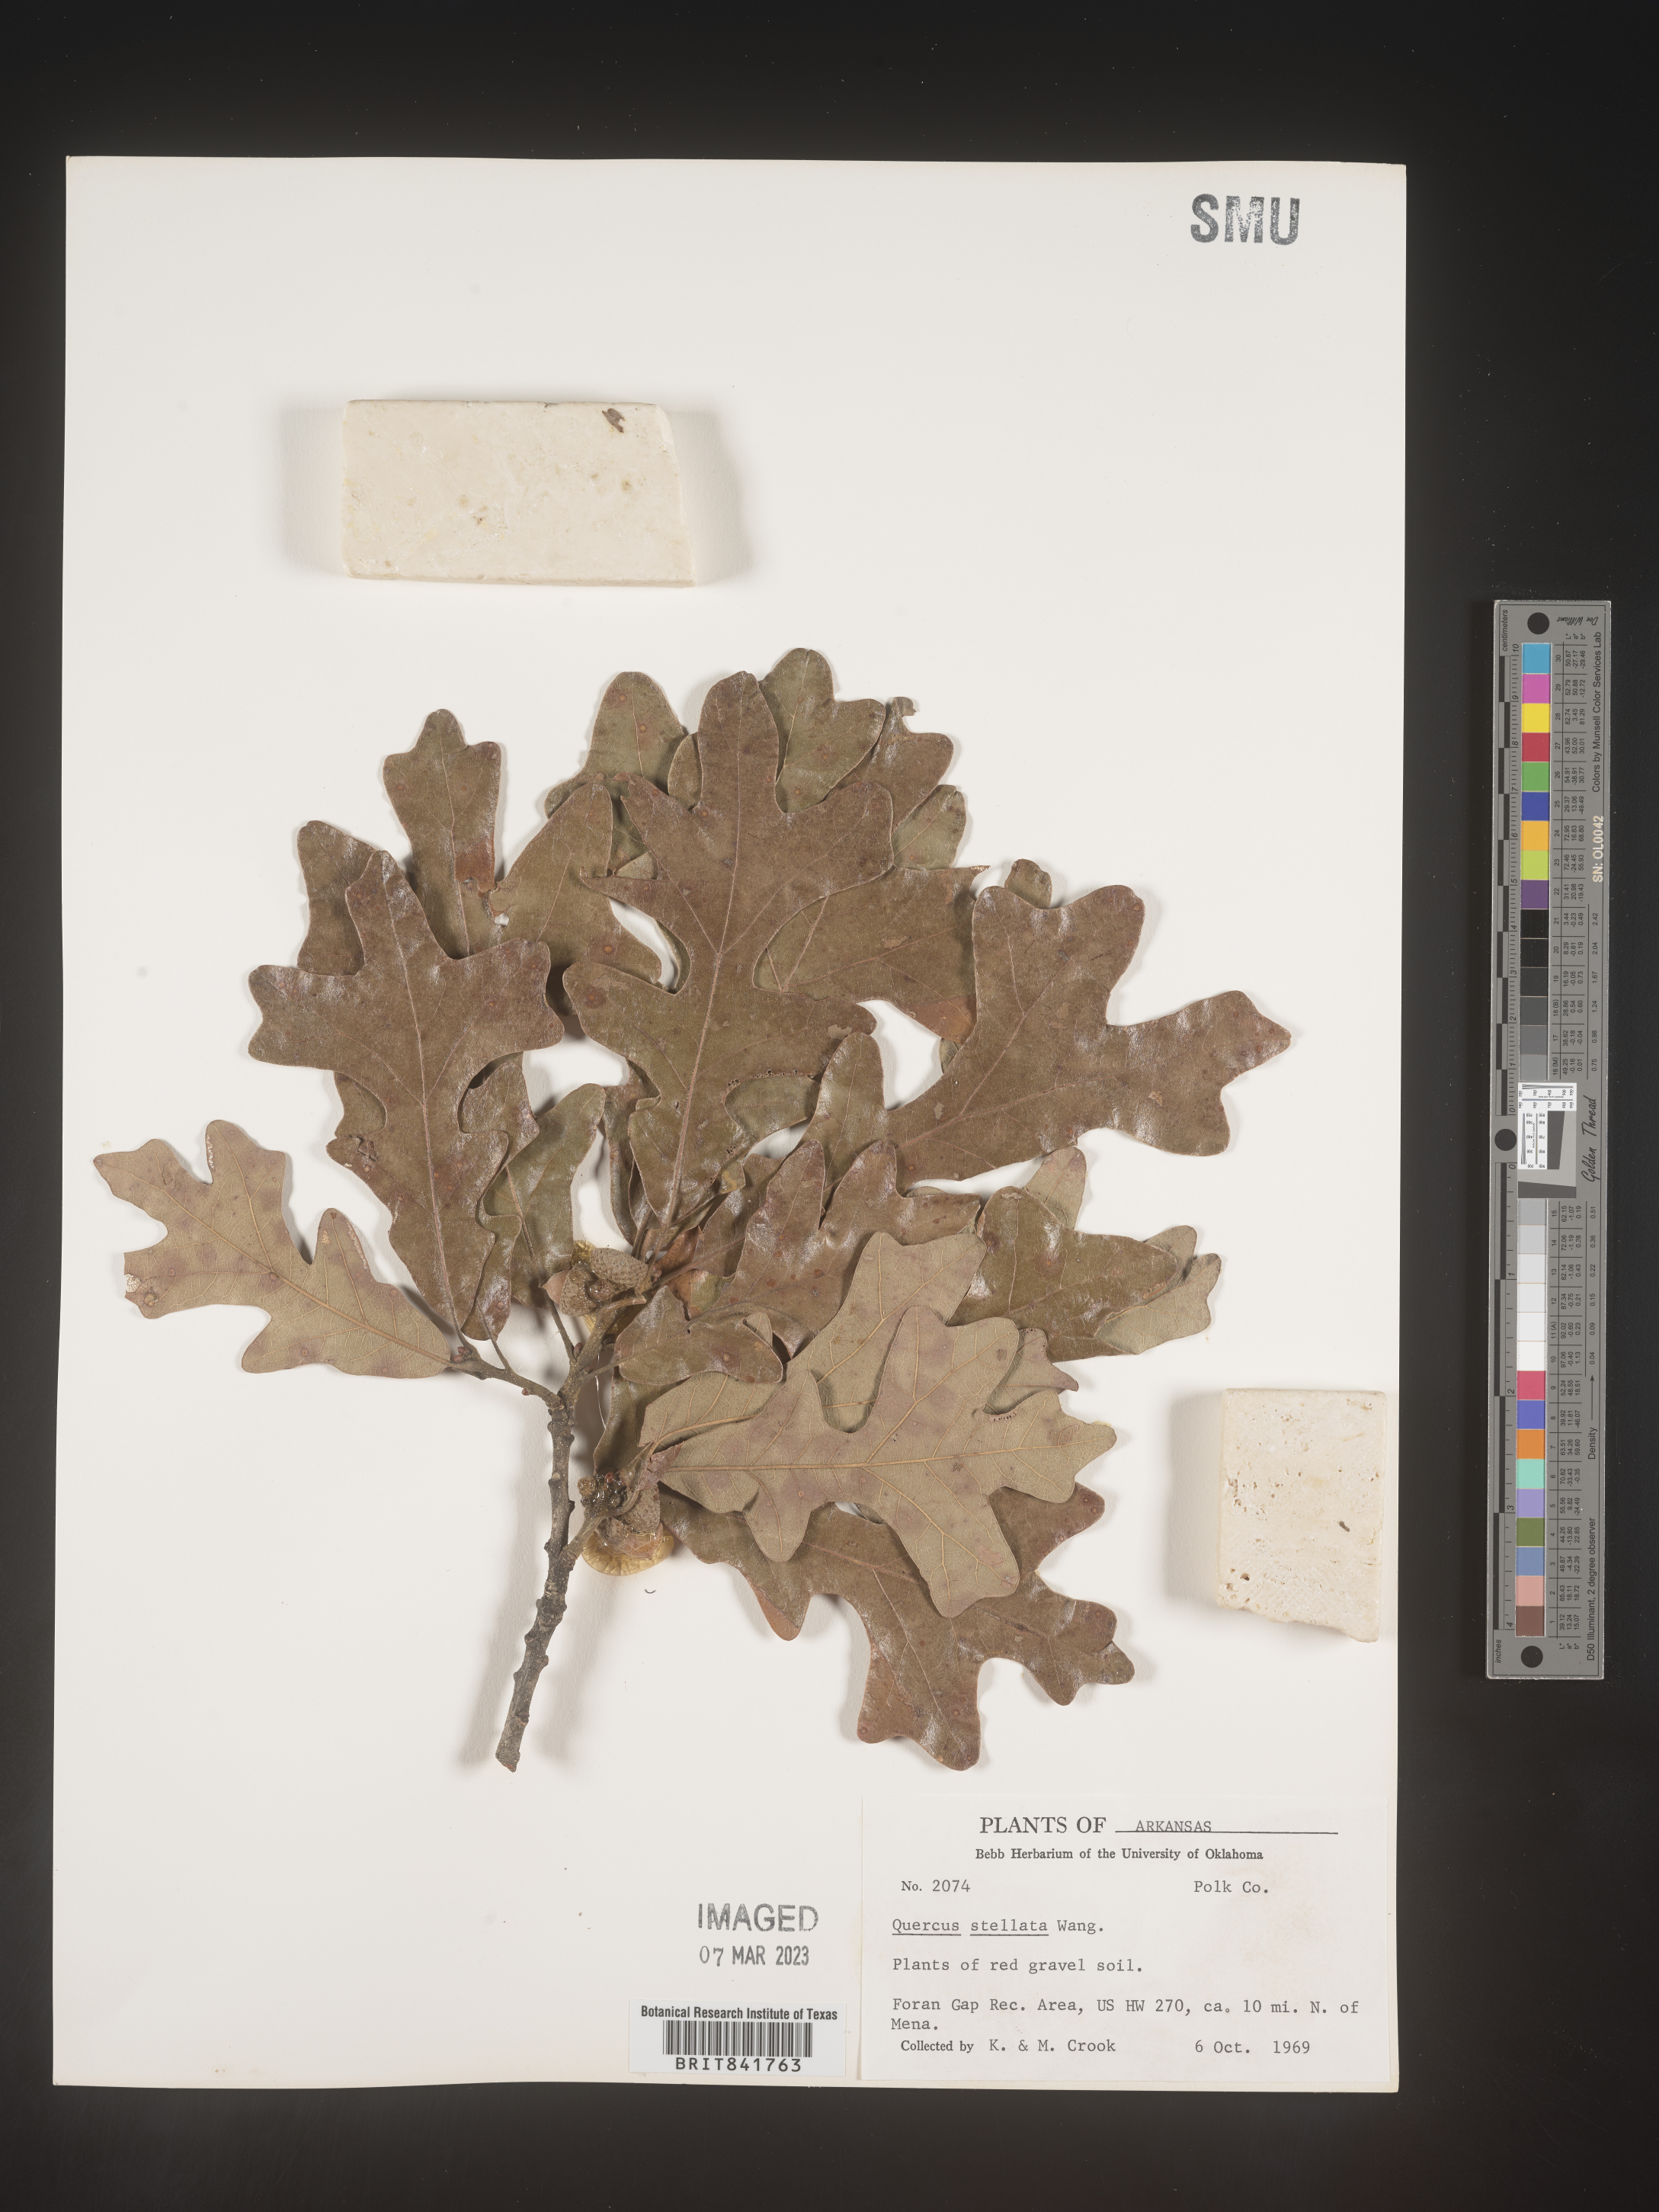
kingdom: Plantae
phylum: Tracheophyta
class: Magnoliopsida
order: Fagales
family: Fagaceae
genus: Quercus
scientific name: Quercus stellata
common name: Post oak
